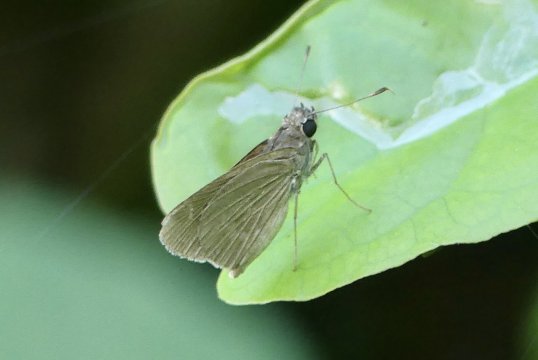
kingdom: Animalia
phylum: Arthropoda
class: Insecta
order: Lepidoptera
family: Hesperiidae
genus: Cymaenes
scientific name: Cymaenes tripunctus
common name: Three-spotted Skipper
